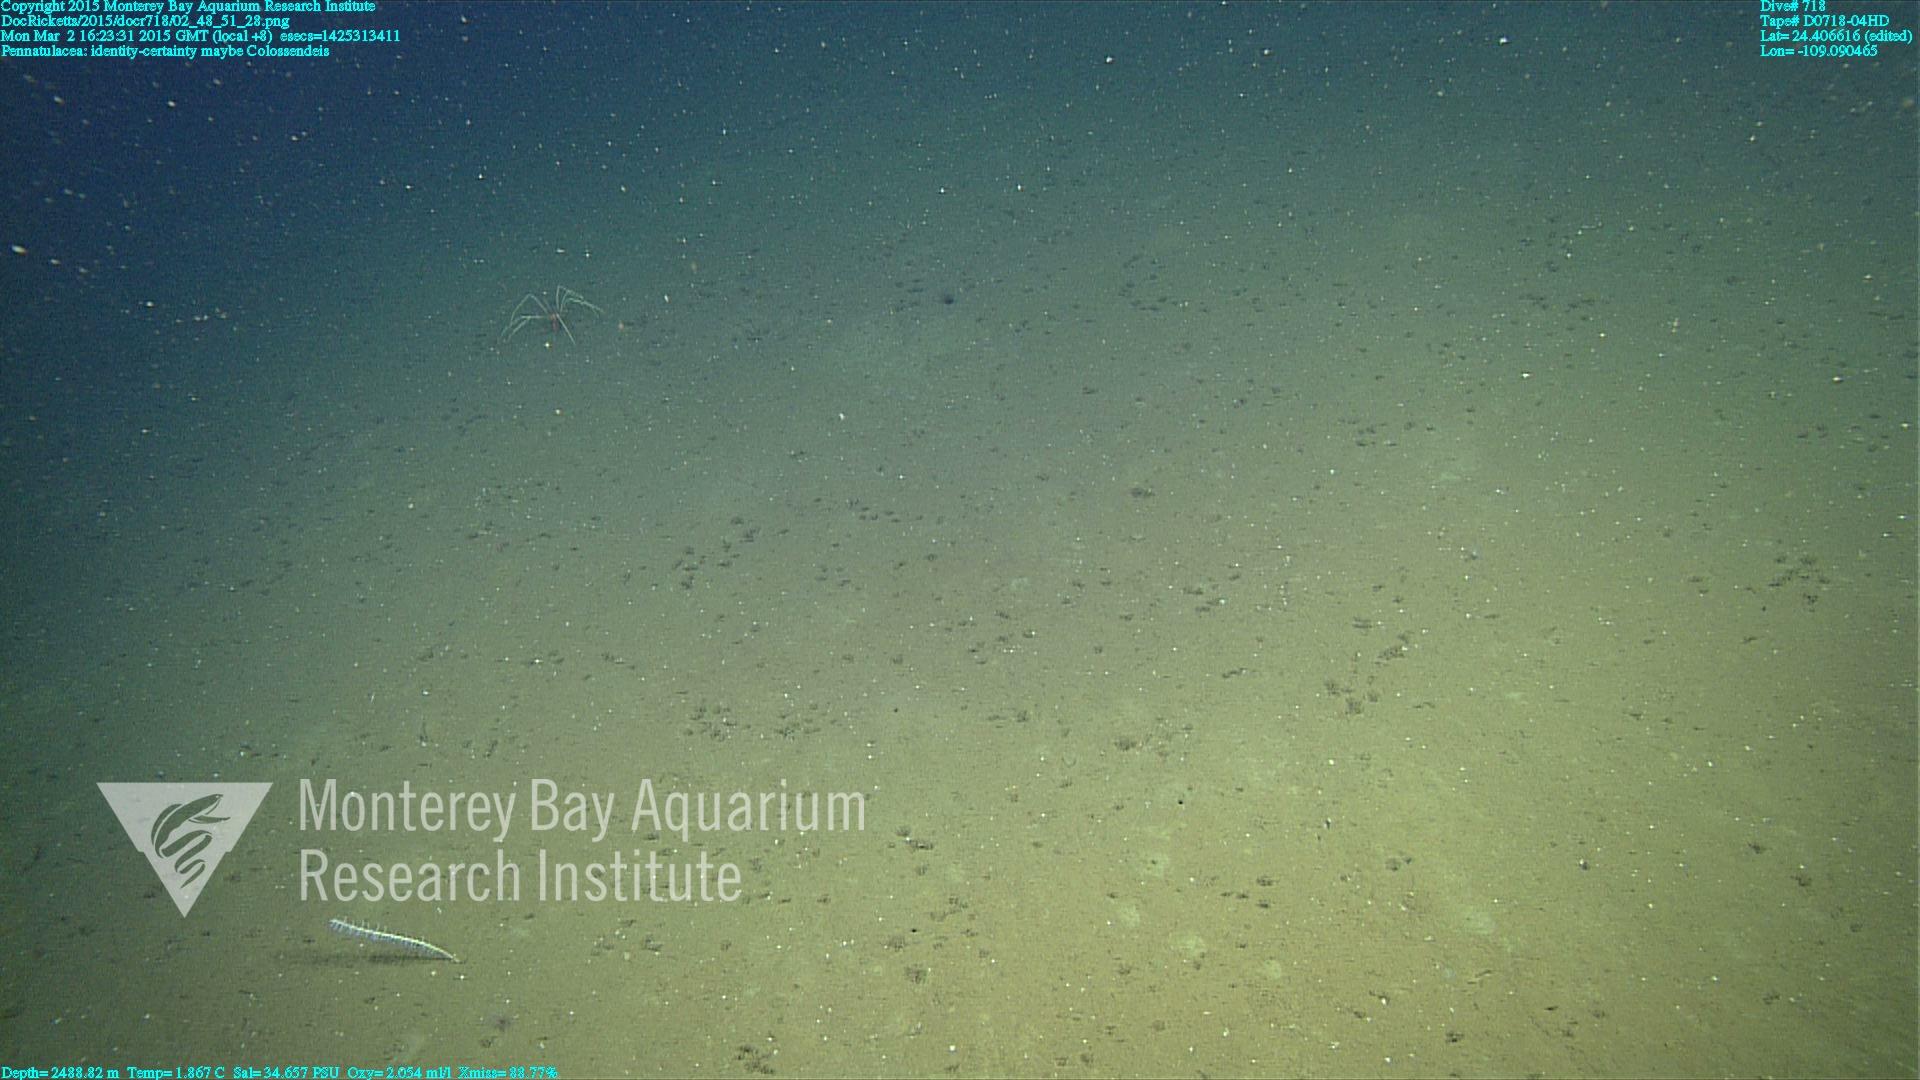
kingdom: Animalia
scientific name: Animalia
